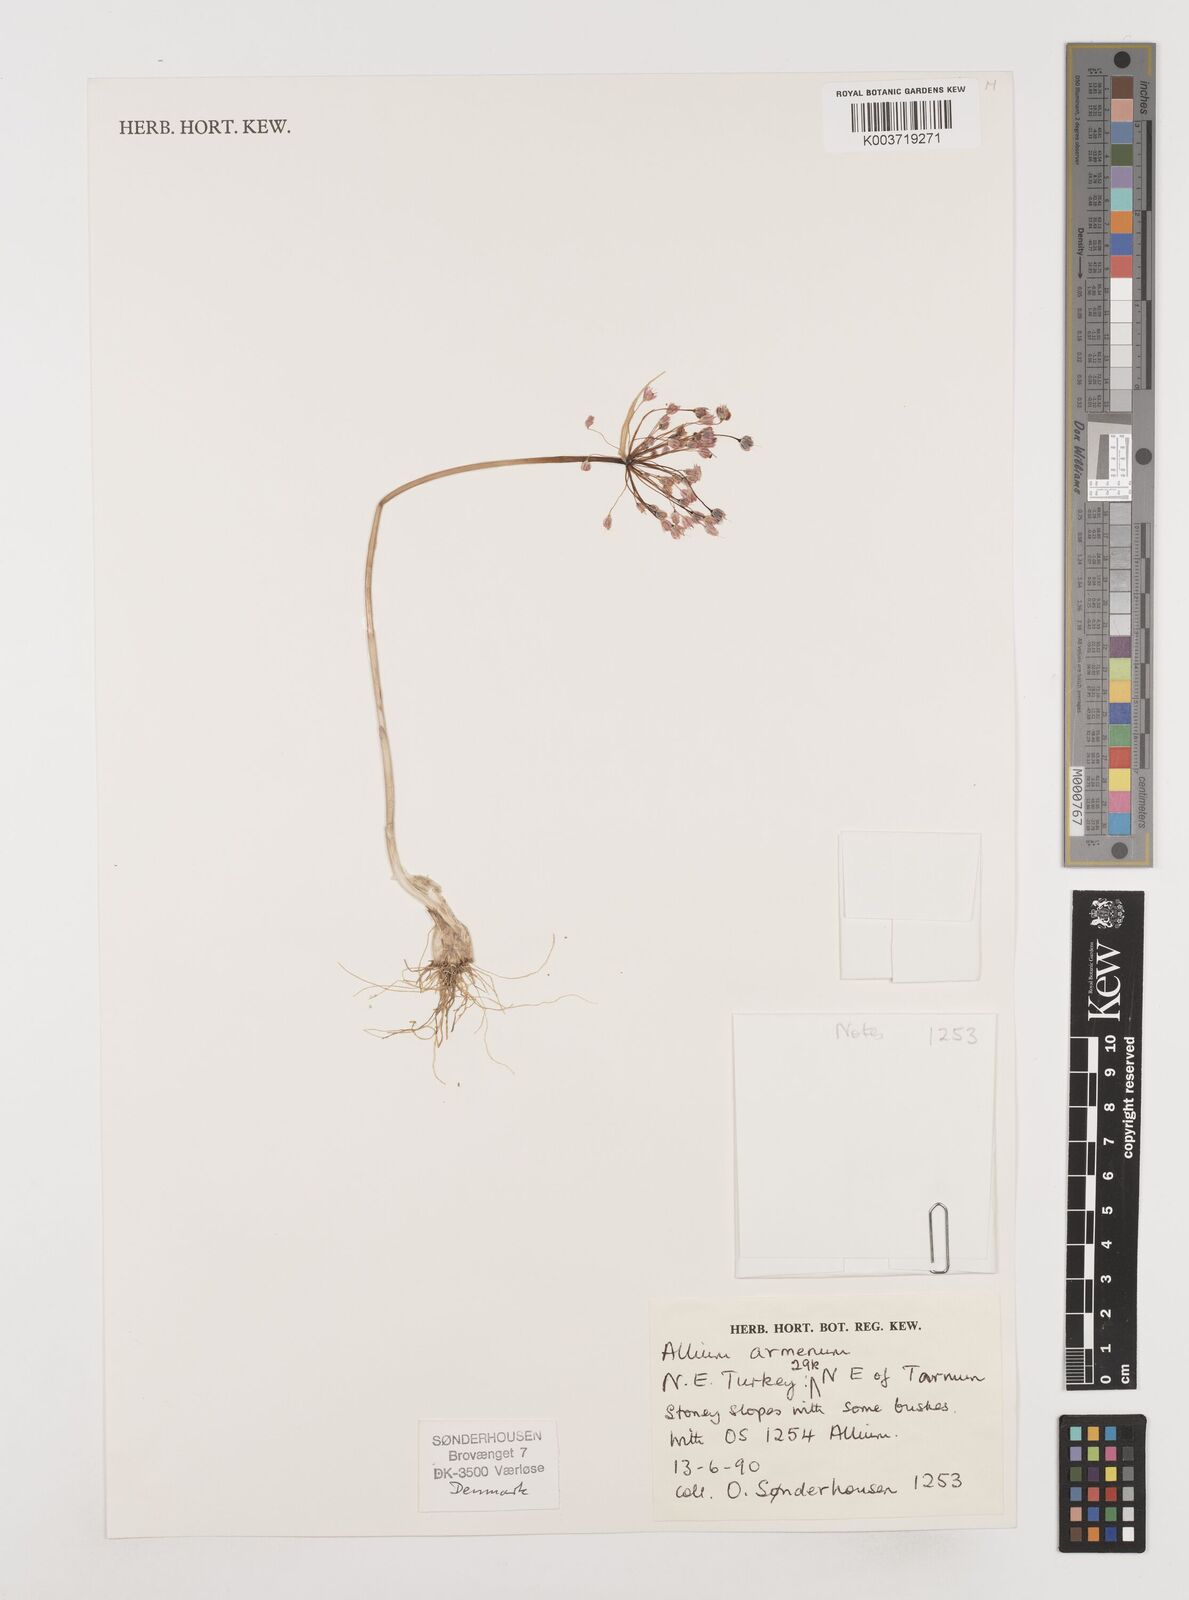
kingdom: Plantae
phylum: Tracheophyta
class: Liliopsida
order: Asparagales
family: Amaryllidaceae
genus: Allium
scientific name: Allium armenum
